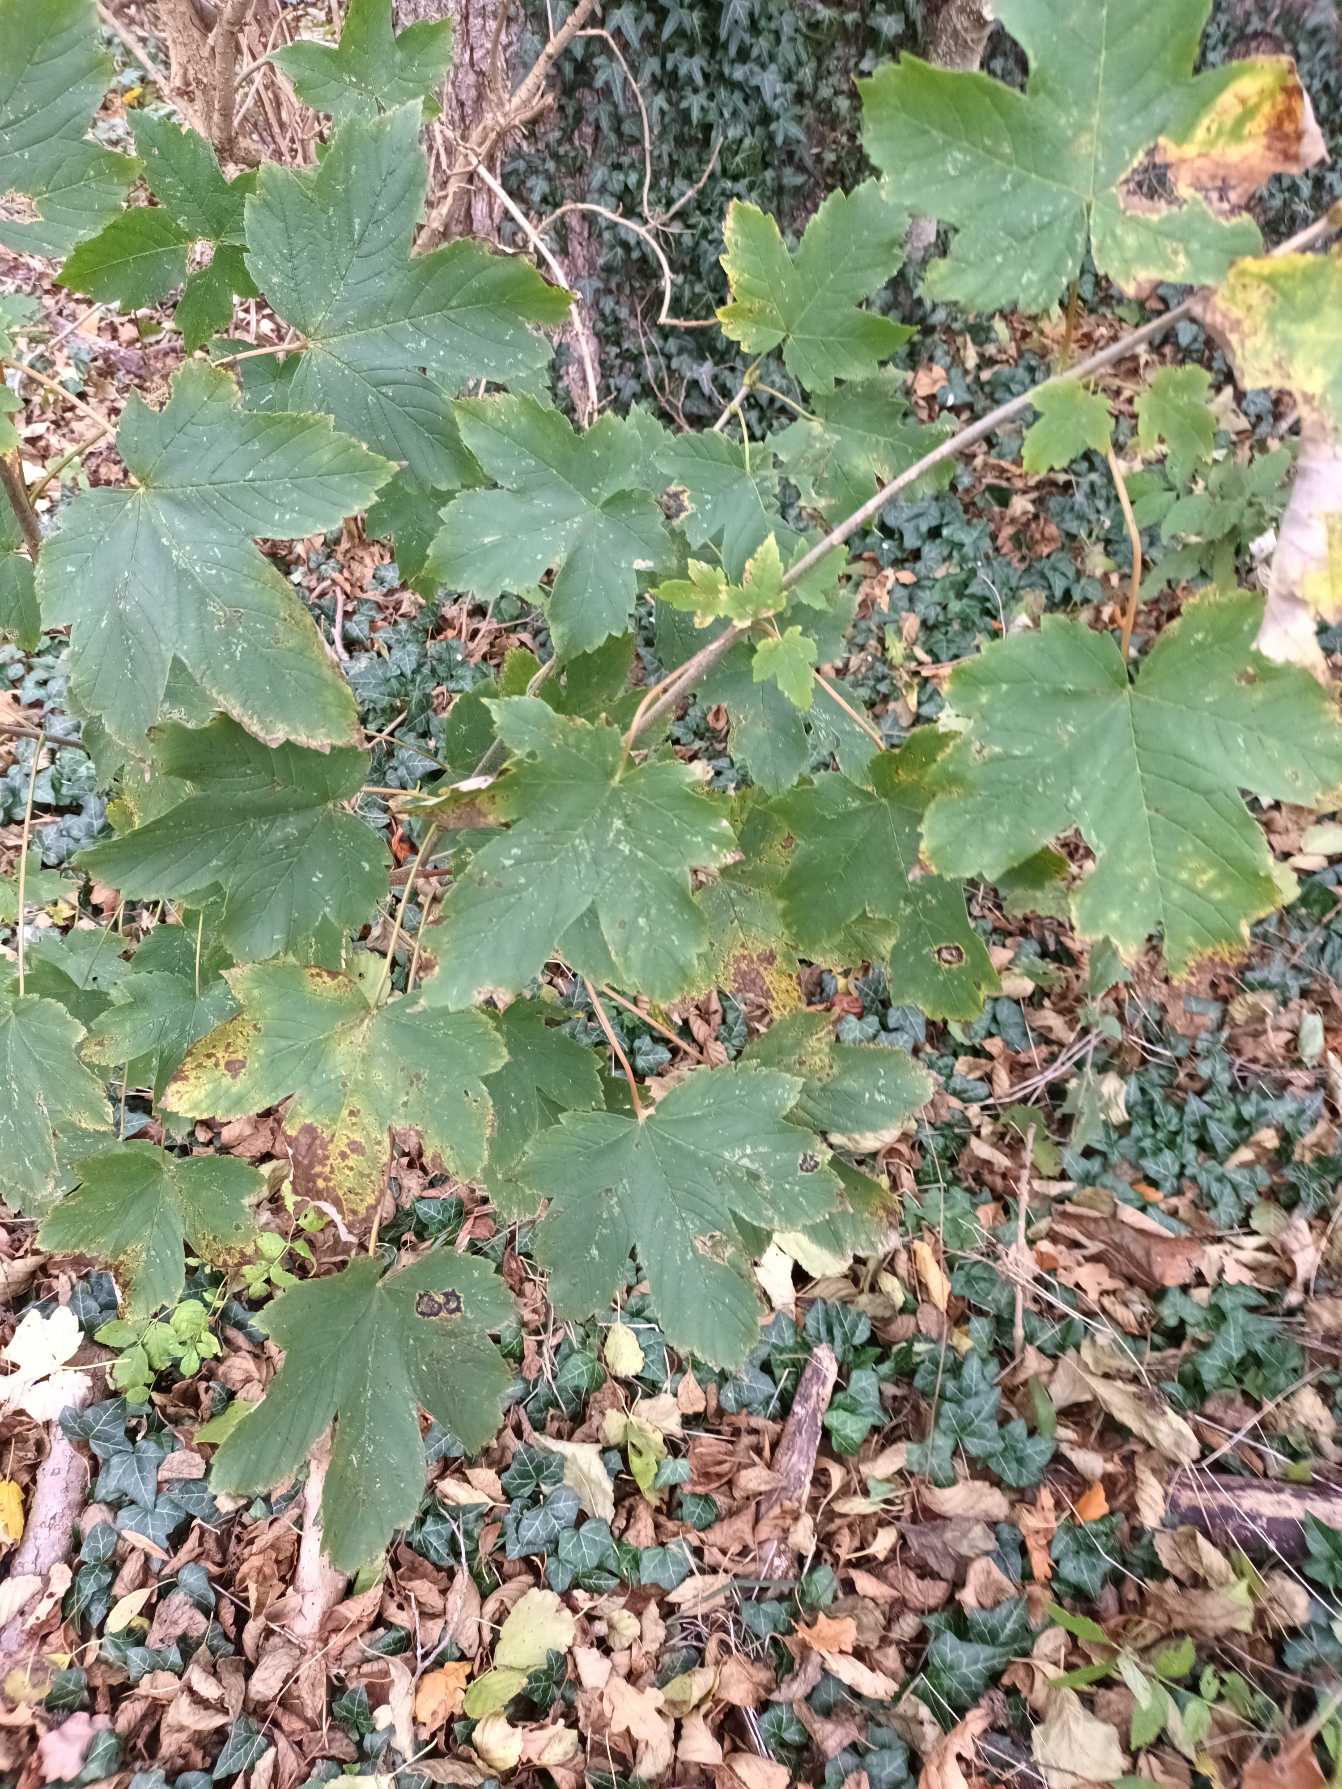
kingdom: Plantae
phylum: Tracheophyta
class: Magnoliopsida
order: Sapindales
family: Sapindaceae
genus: Acer
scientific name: Acer pseudoplatanus
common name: Ahorn
